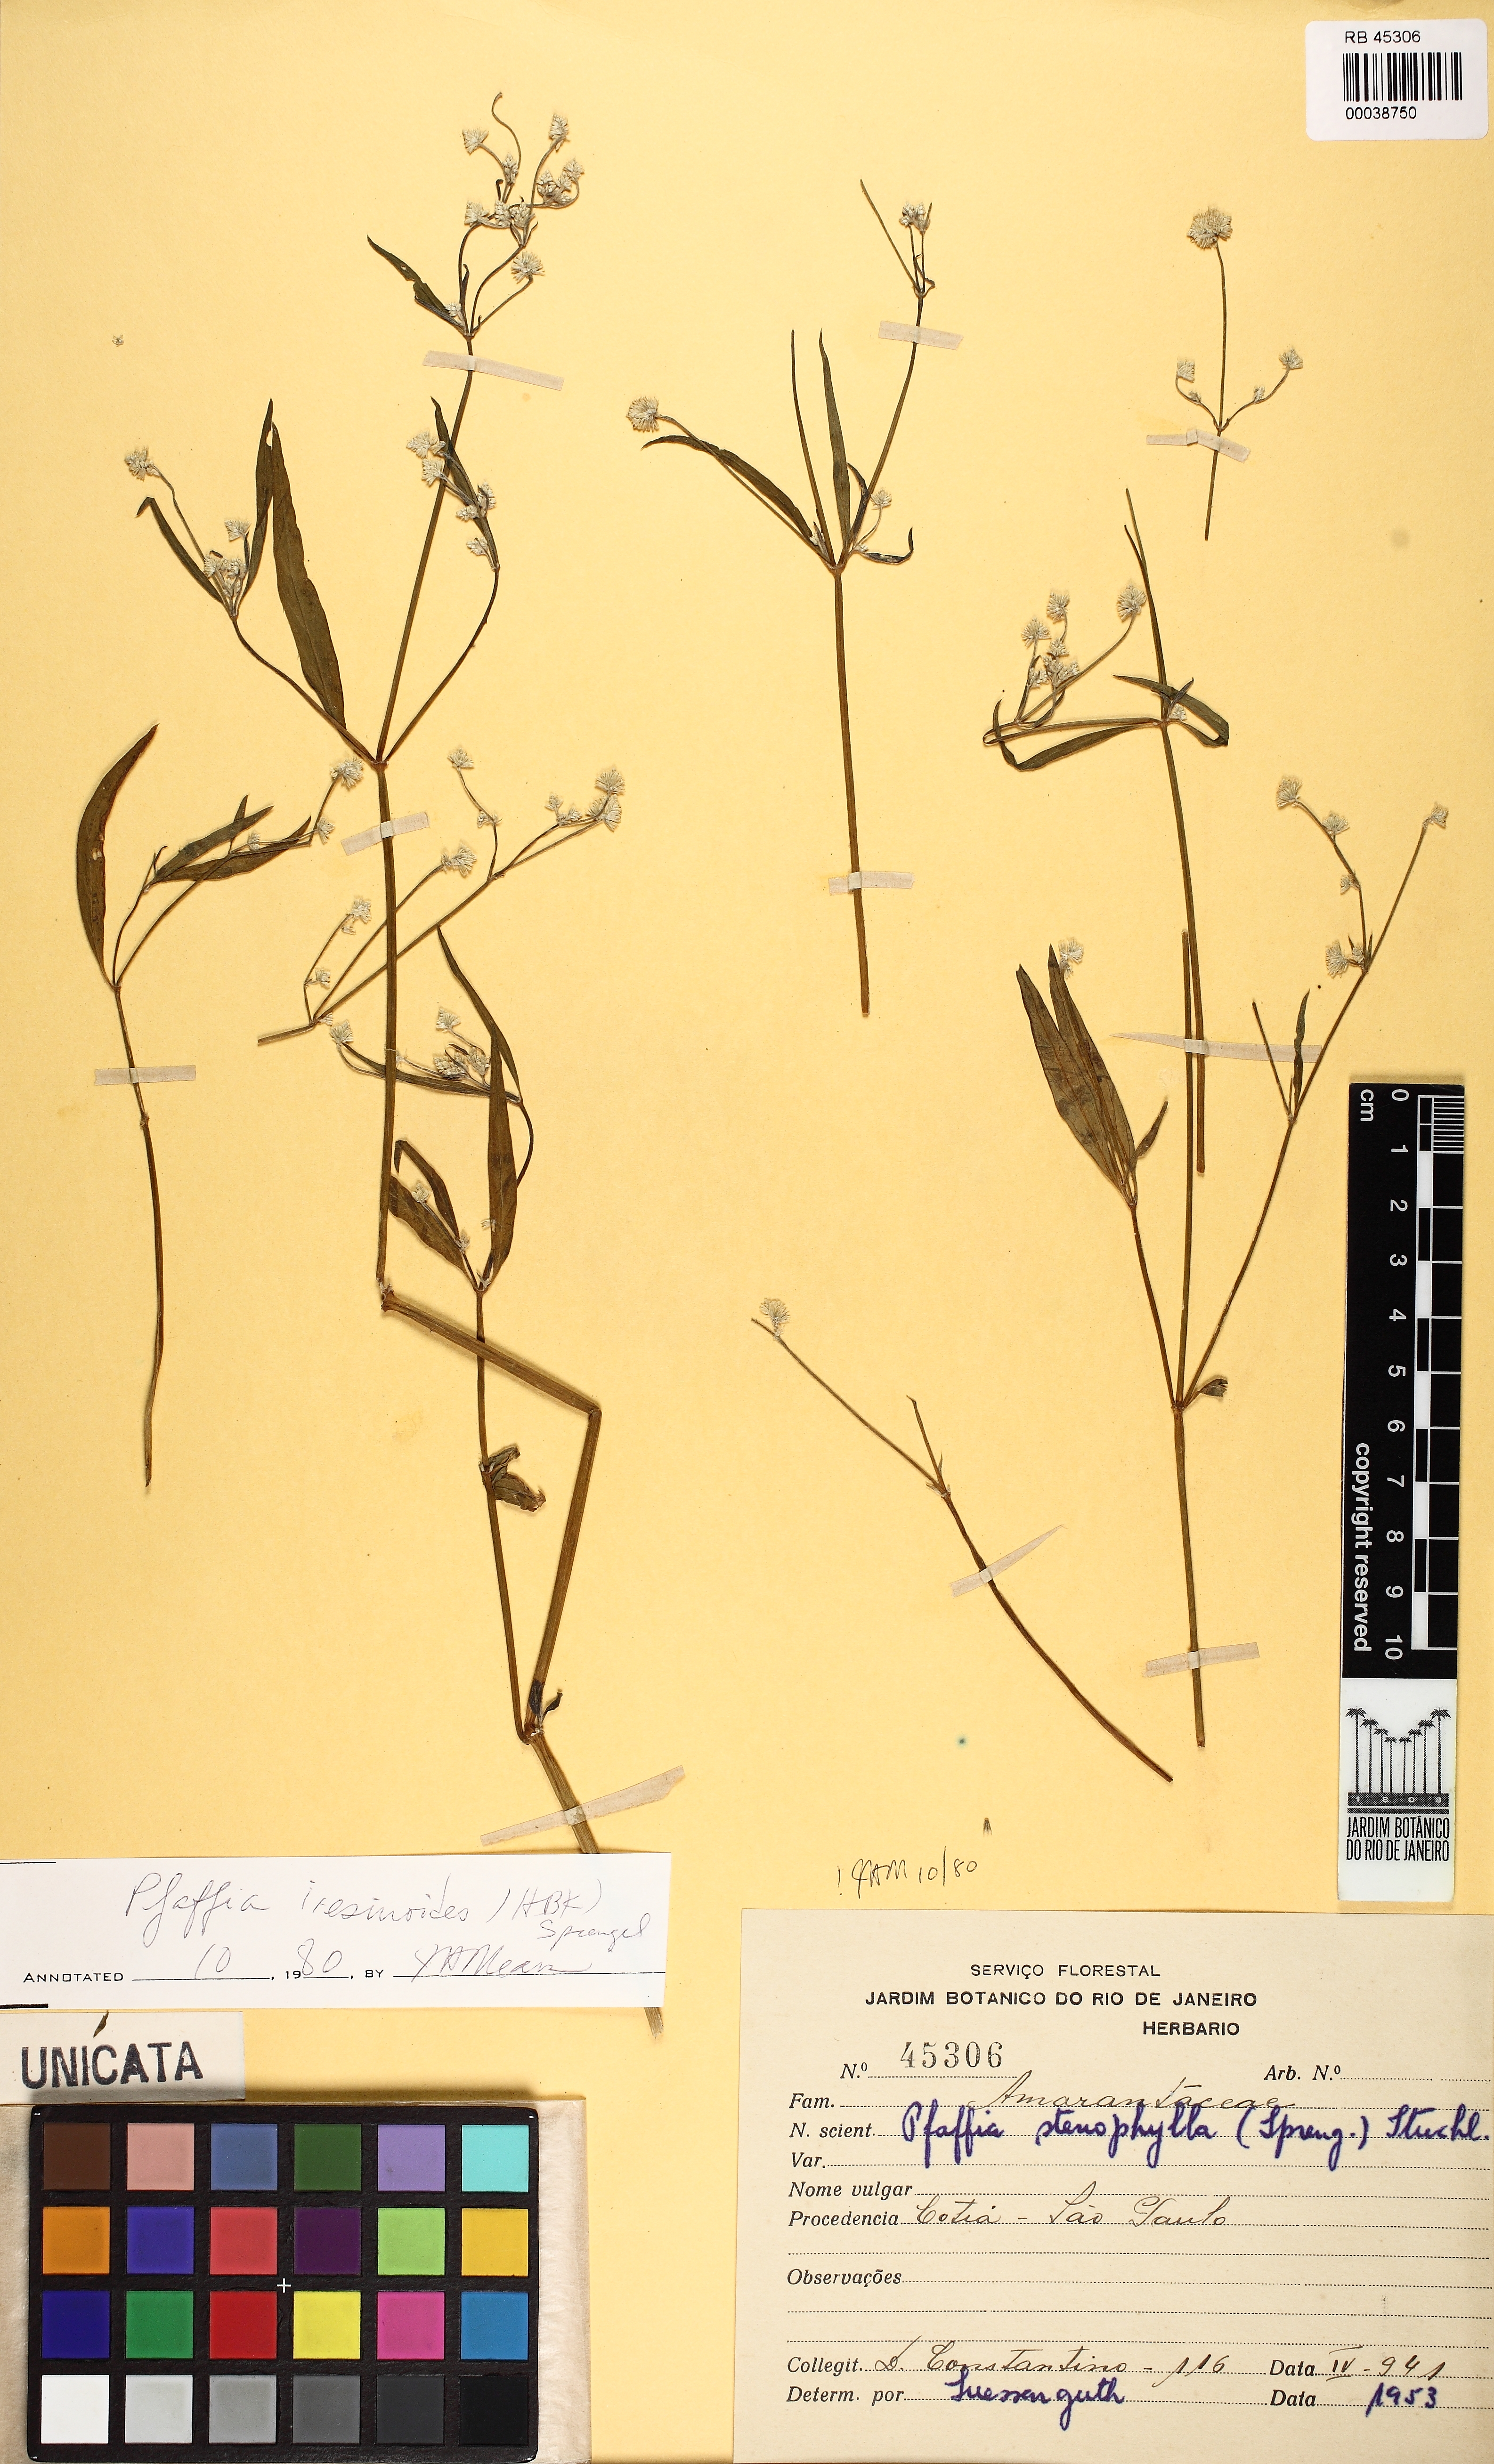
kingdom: Plantae
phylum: Tracheophyta
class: Magnoliopsida
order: Caryophyllales
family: Amaranthaceae
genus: Pfaffia
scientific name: Pfaffia glomerata
